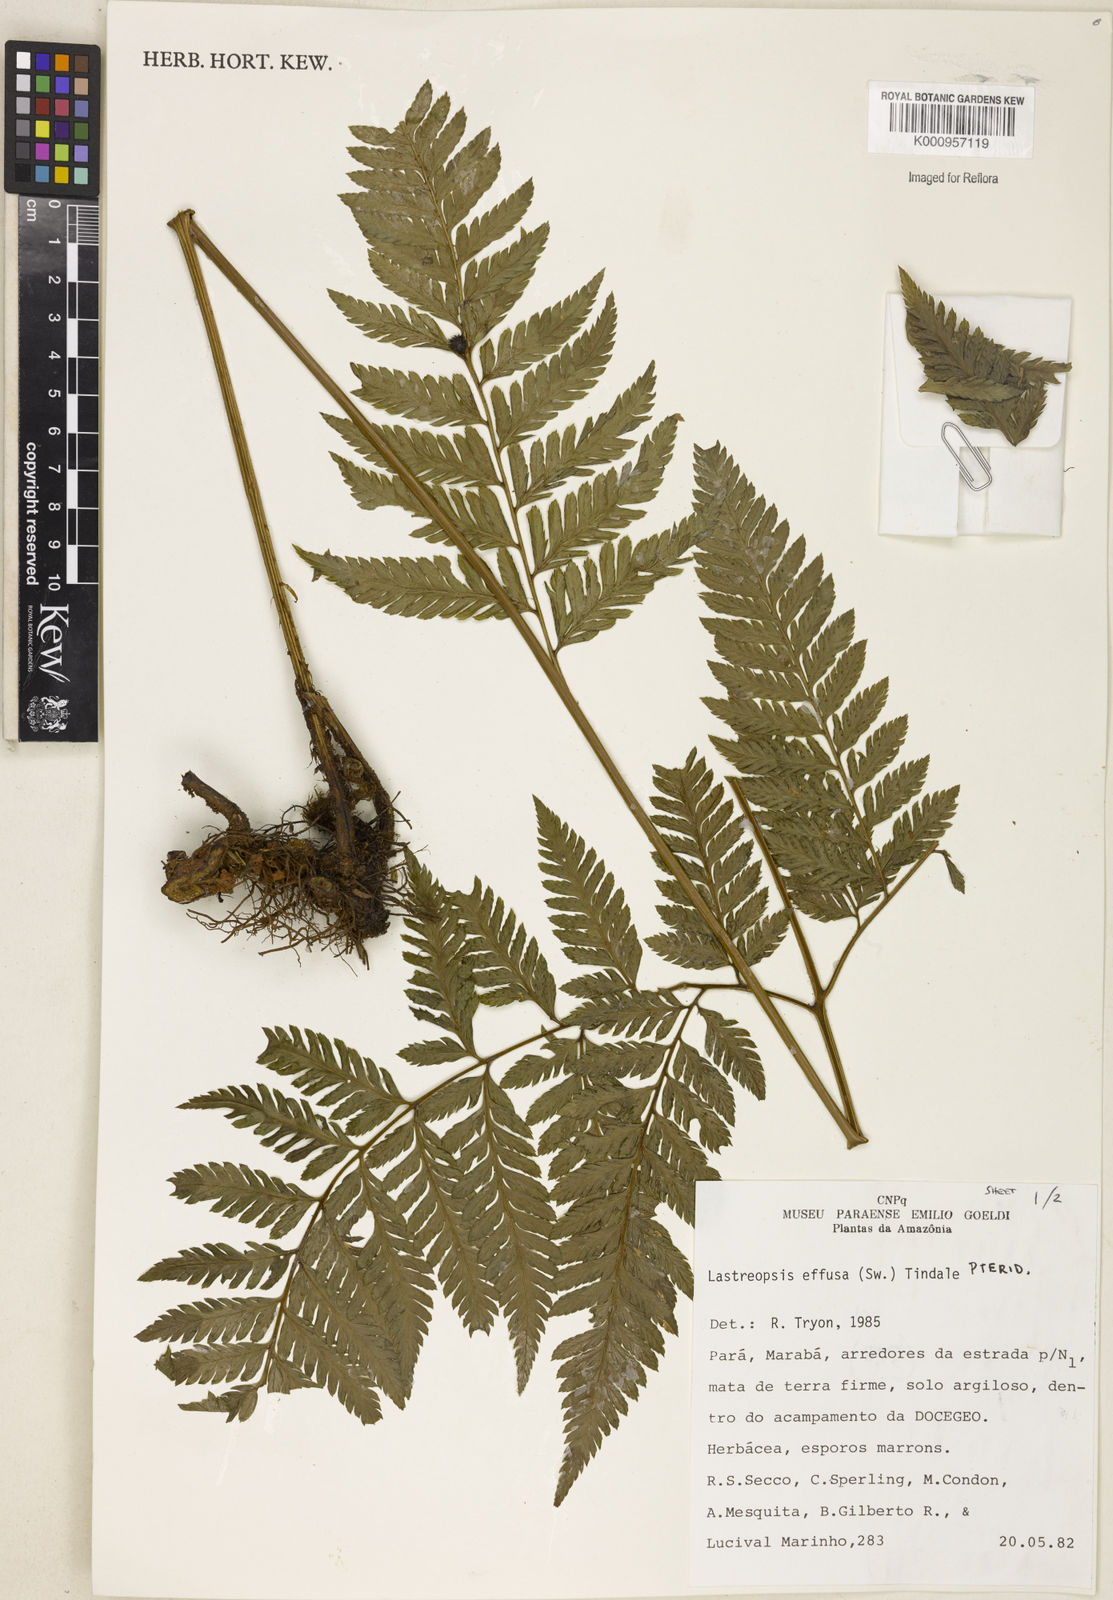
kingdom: Plantae
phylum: Tracheophyta
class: Polypodiopsida
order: Polypodiales
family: Dryopteridaceae
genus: Parapolystichum
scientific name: Parapolystichum effusum
